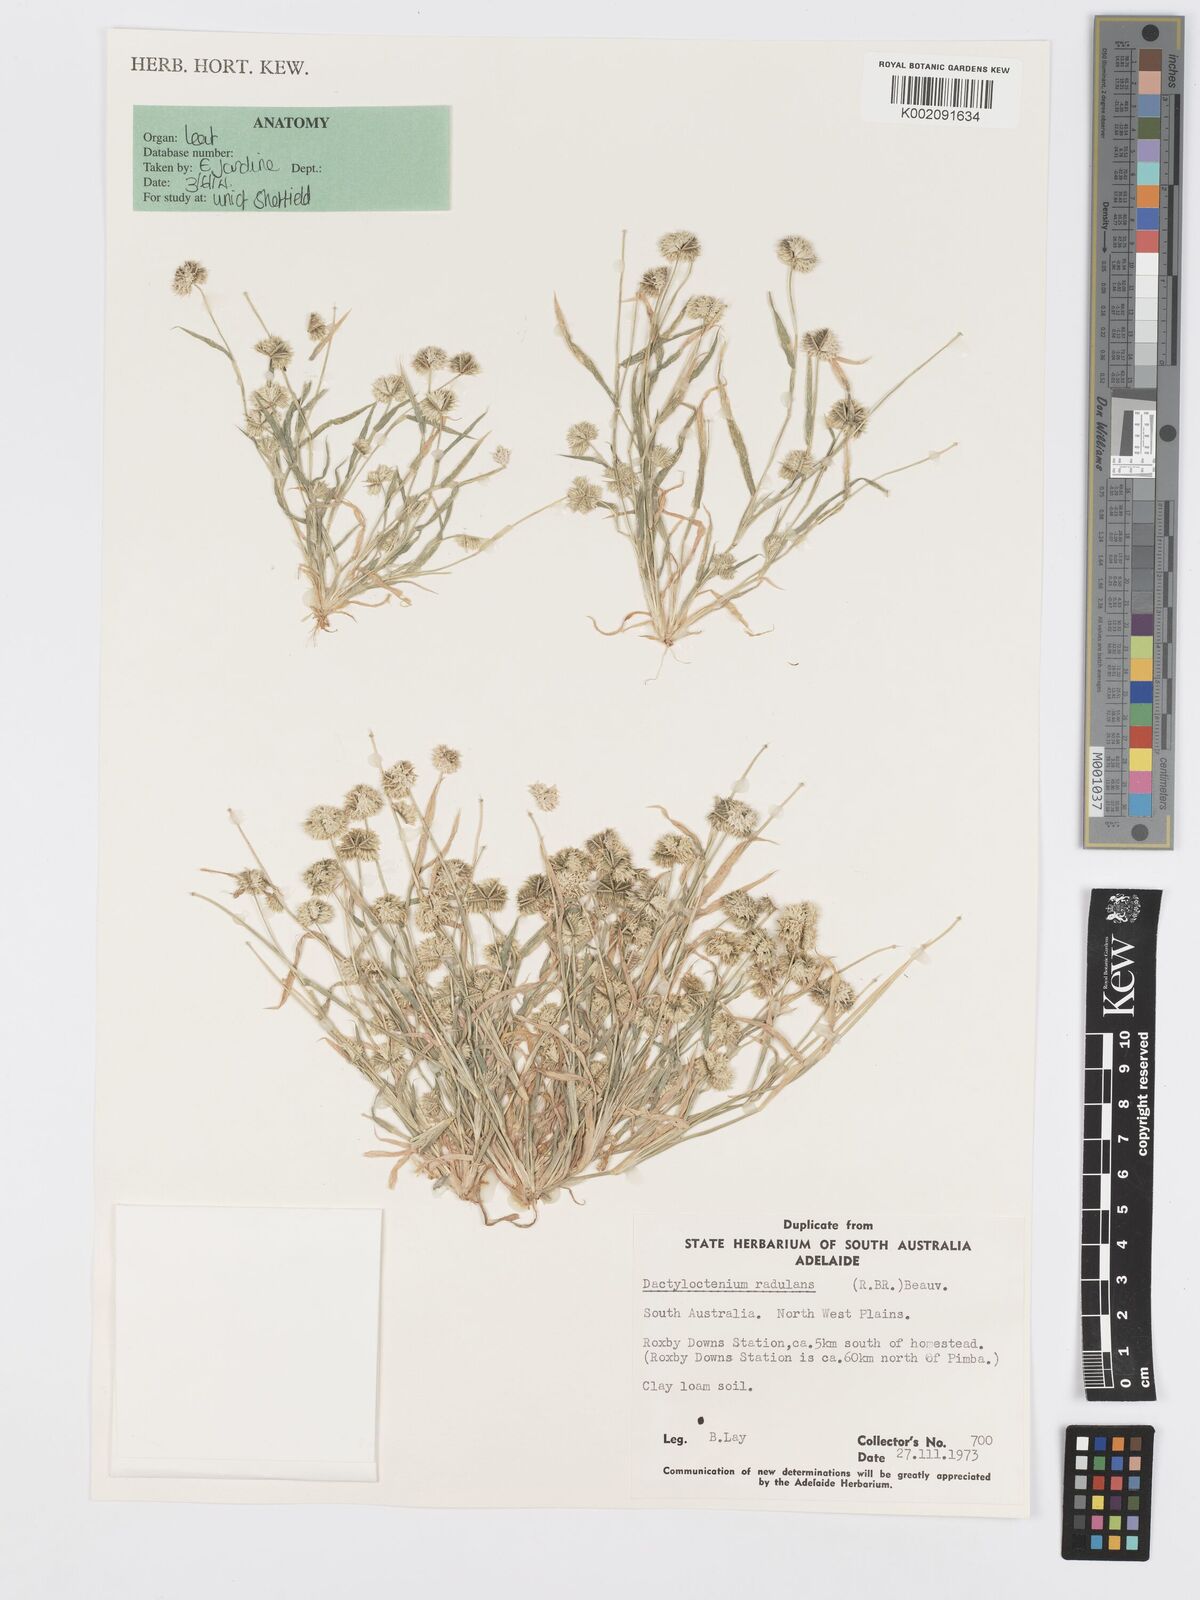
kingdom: Plantae
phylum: Tracheophyta
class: Liliopsida
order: Poales
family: Poaceae
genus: Dactyloctenium
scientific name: Dactyloctenium radulans
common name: Button-grass
